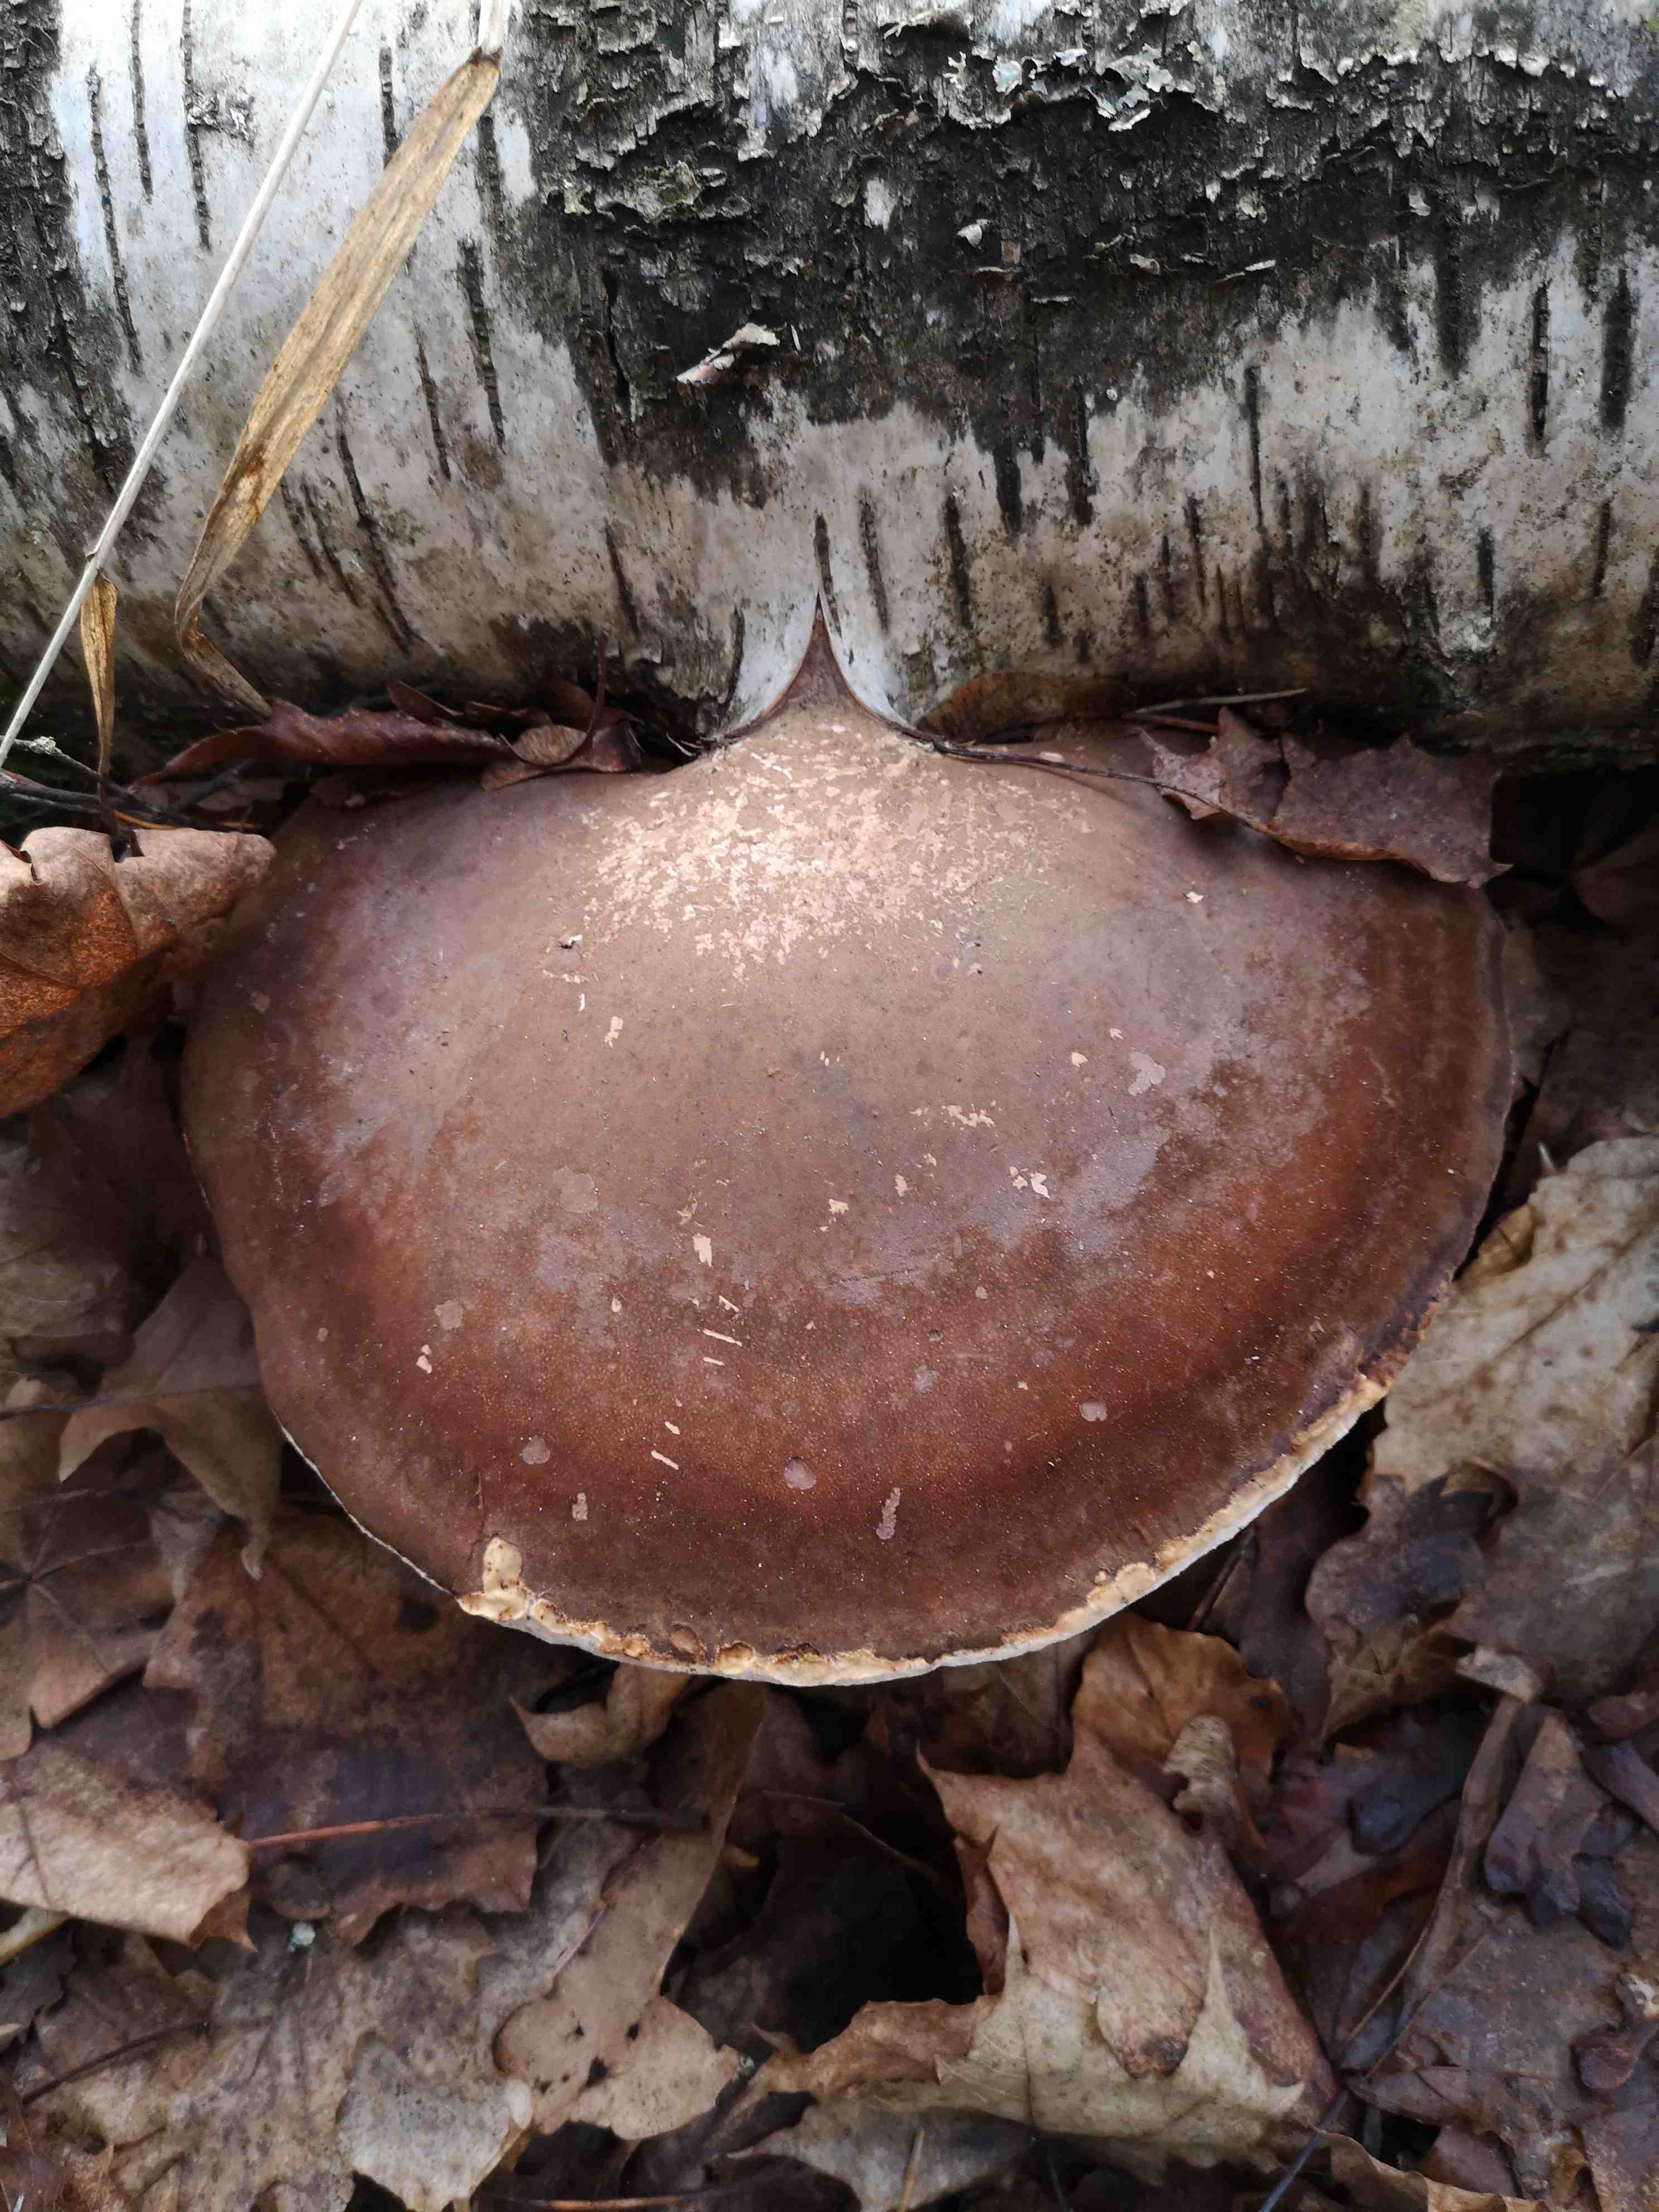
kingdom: Fungi
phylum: Basidiomycota
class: Agaricomycetes
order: Polyporales
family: Fomitopsidaceae
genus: Fomitopsis
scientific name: Fomitopsis betulina
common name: birkeporesvamp
